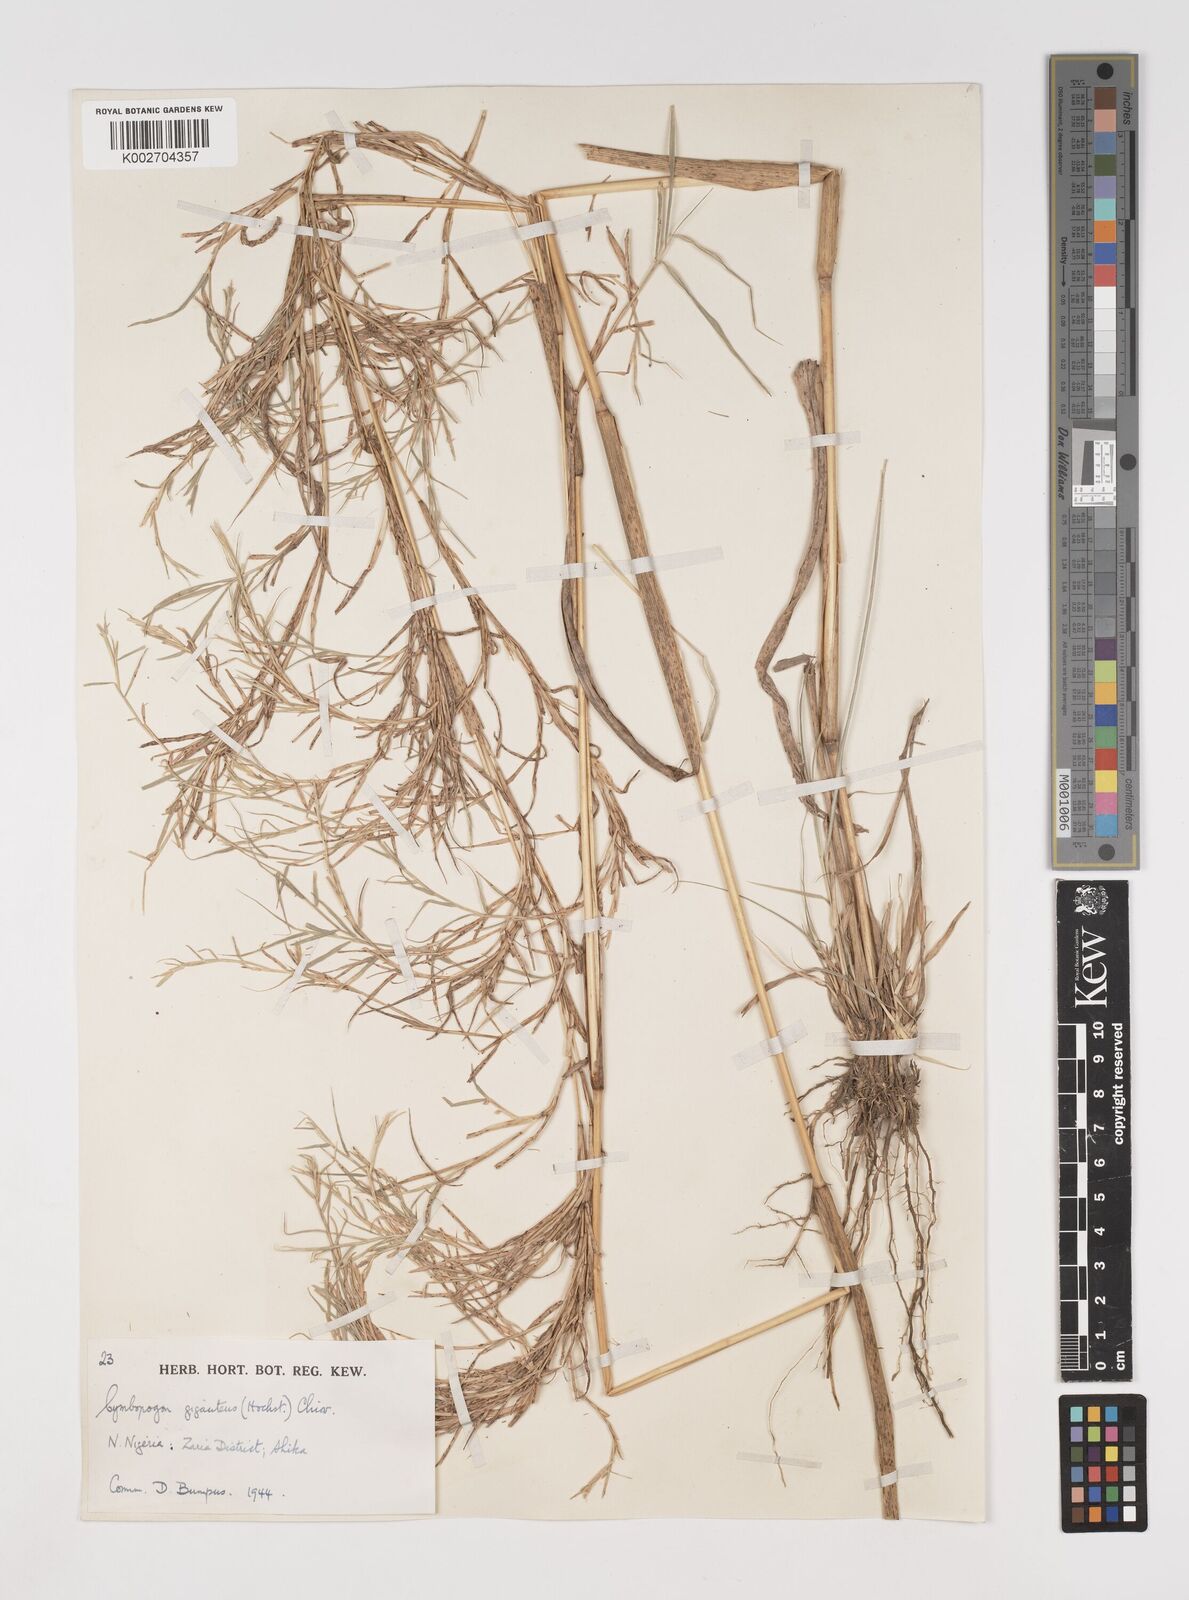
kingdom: Plantae
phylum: Tracheophyta
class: Liliopsida
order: Poales
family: Poaceae
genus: Cymbopogon
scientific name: Cymbopogon giganteus
